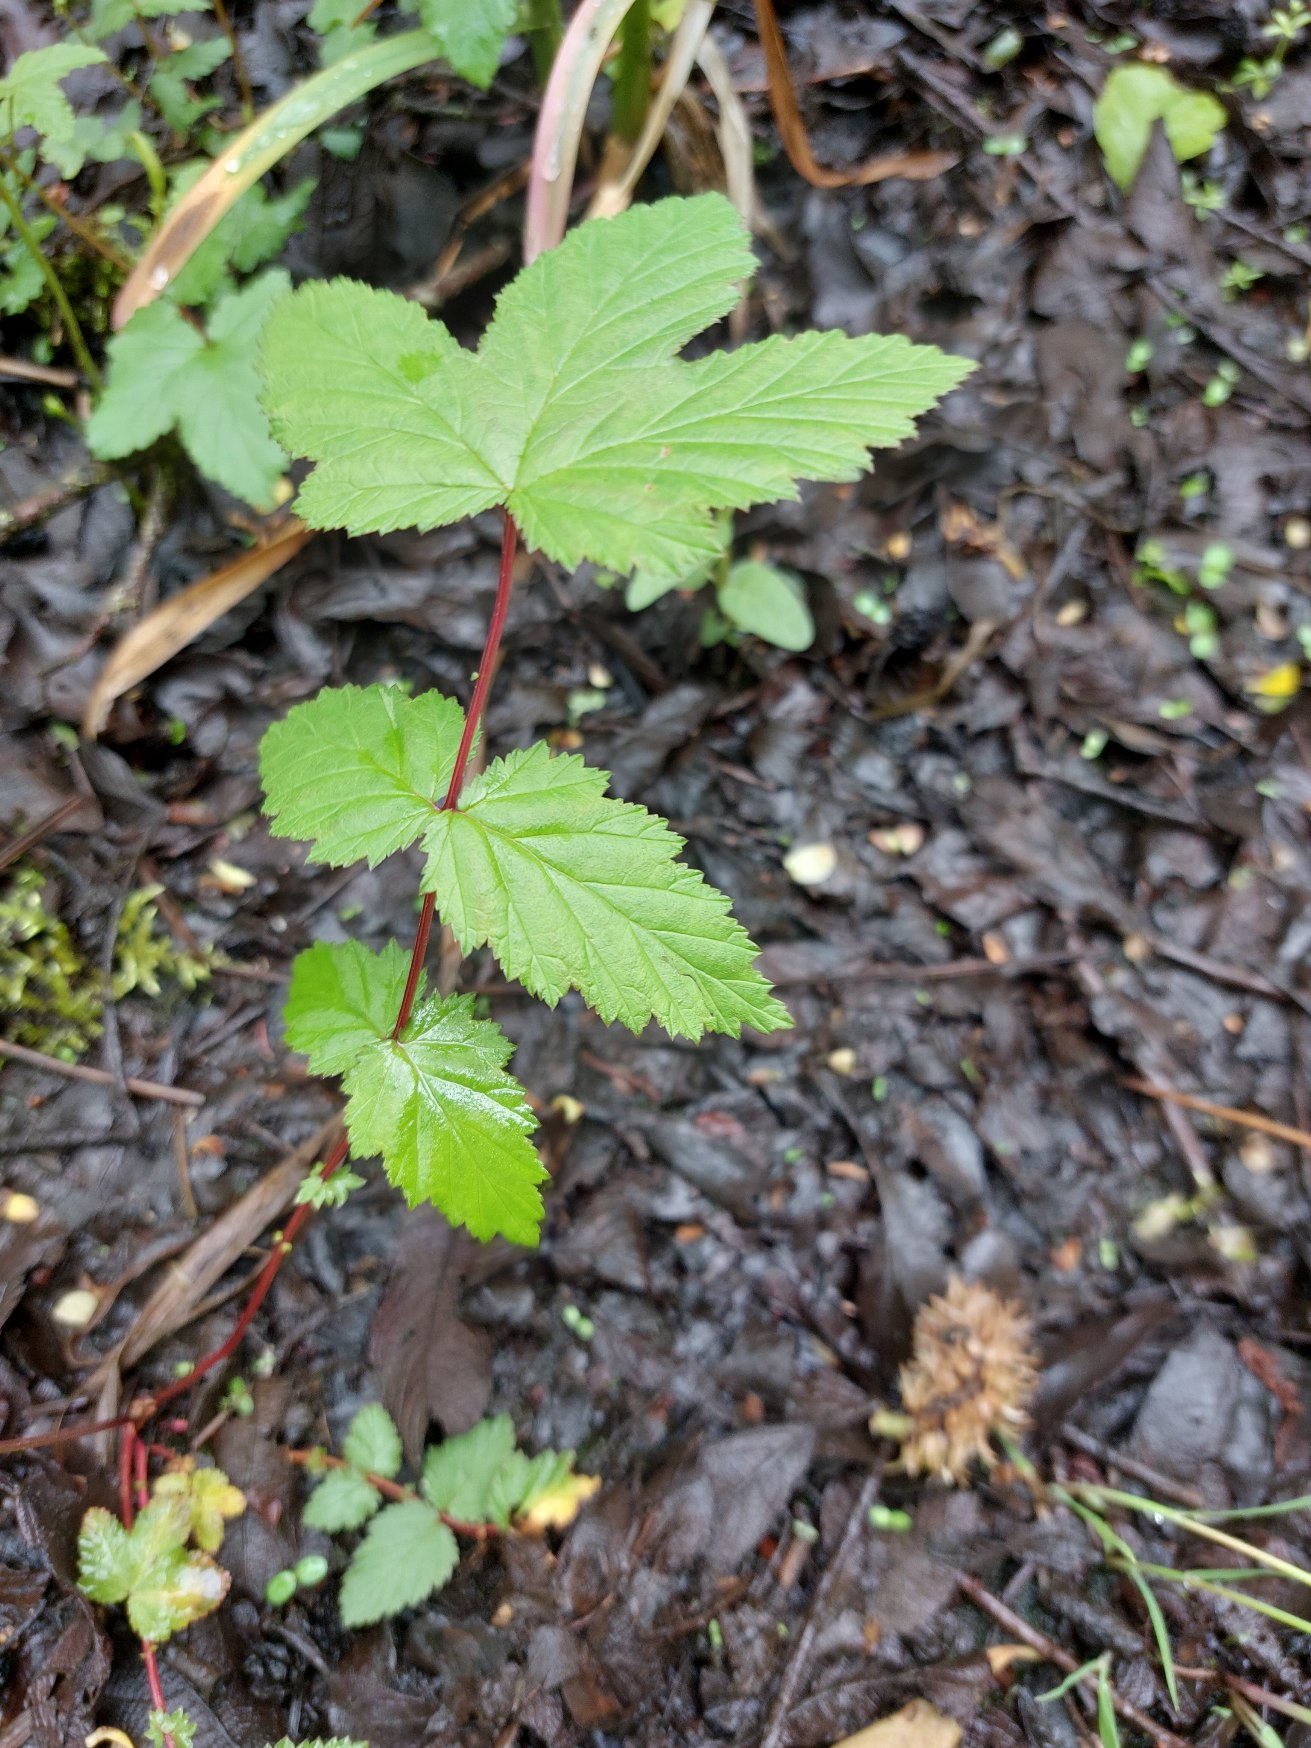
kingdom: Plantae
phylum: Tracheophyta
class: Magnoliopsida
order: Rosales
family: Rosaceae
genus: Filipendula
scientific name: Filipendula ulmaria
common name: Almindelig mjødurt
